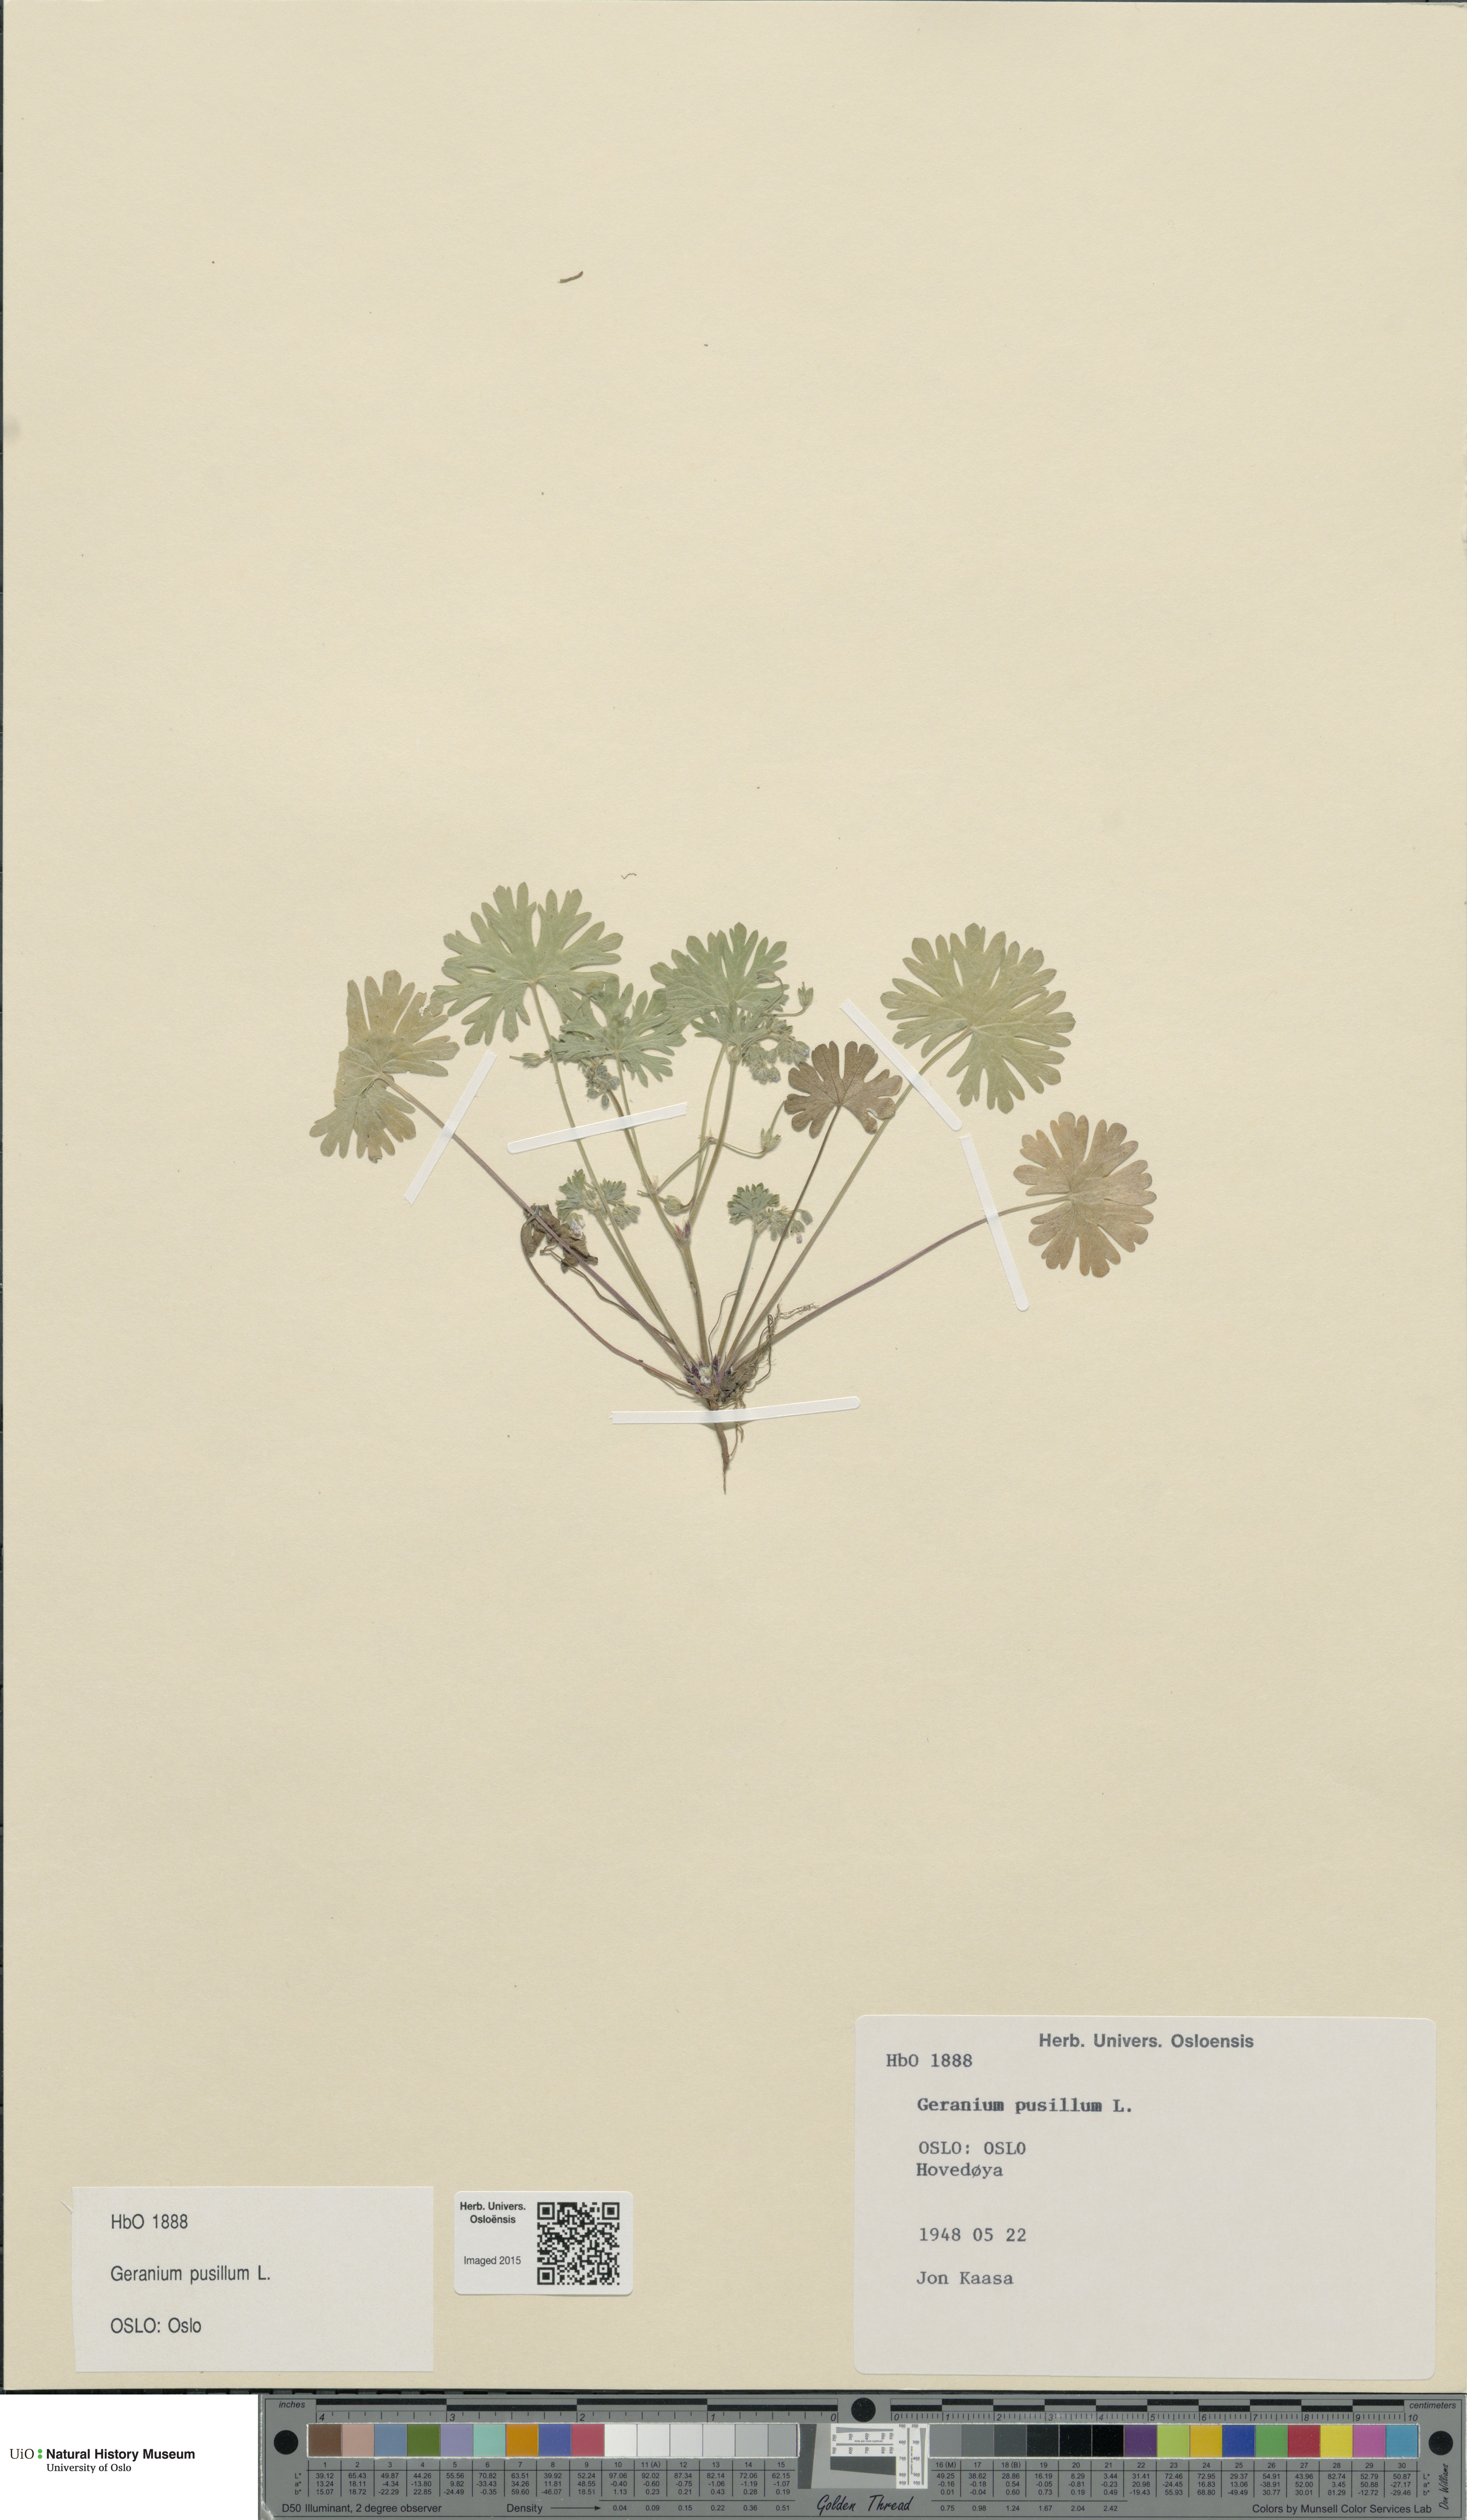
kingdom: Plantae
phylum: Tracheophyta
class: Magnoliopsida
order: Geraniales
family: Geraniaceae
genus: Geranium
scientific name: Geranium pusillum
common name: Small geranium
